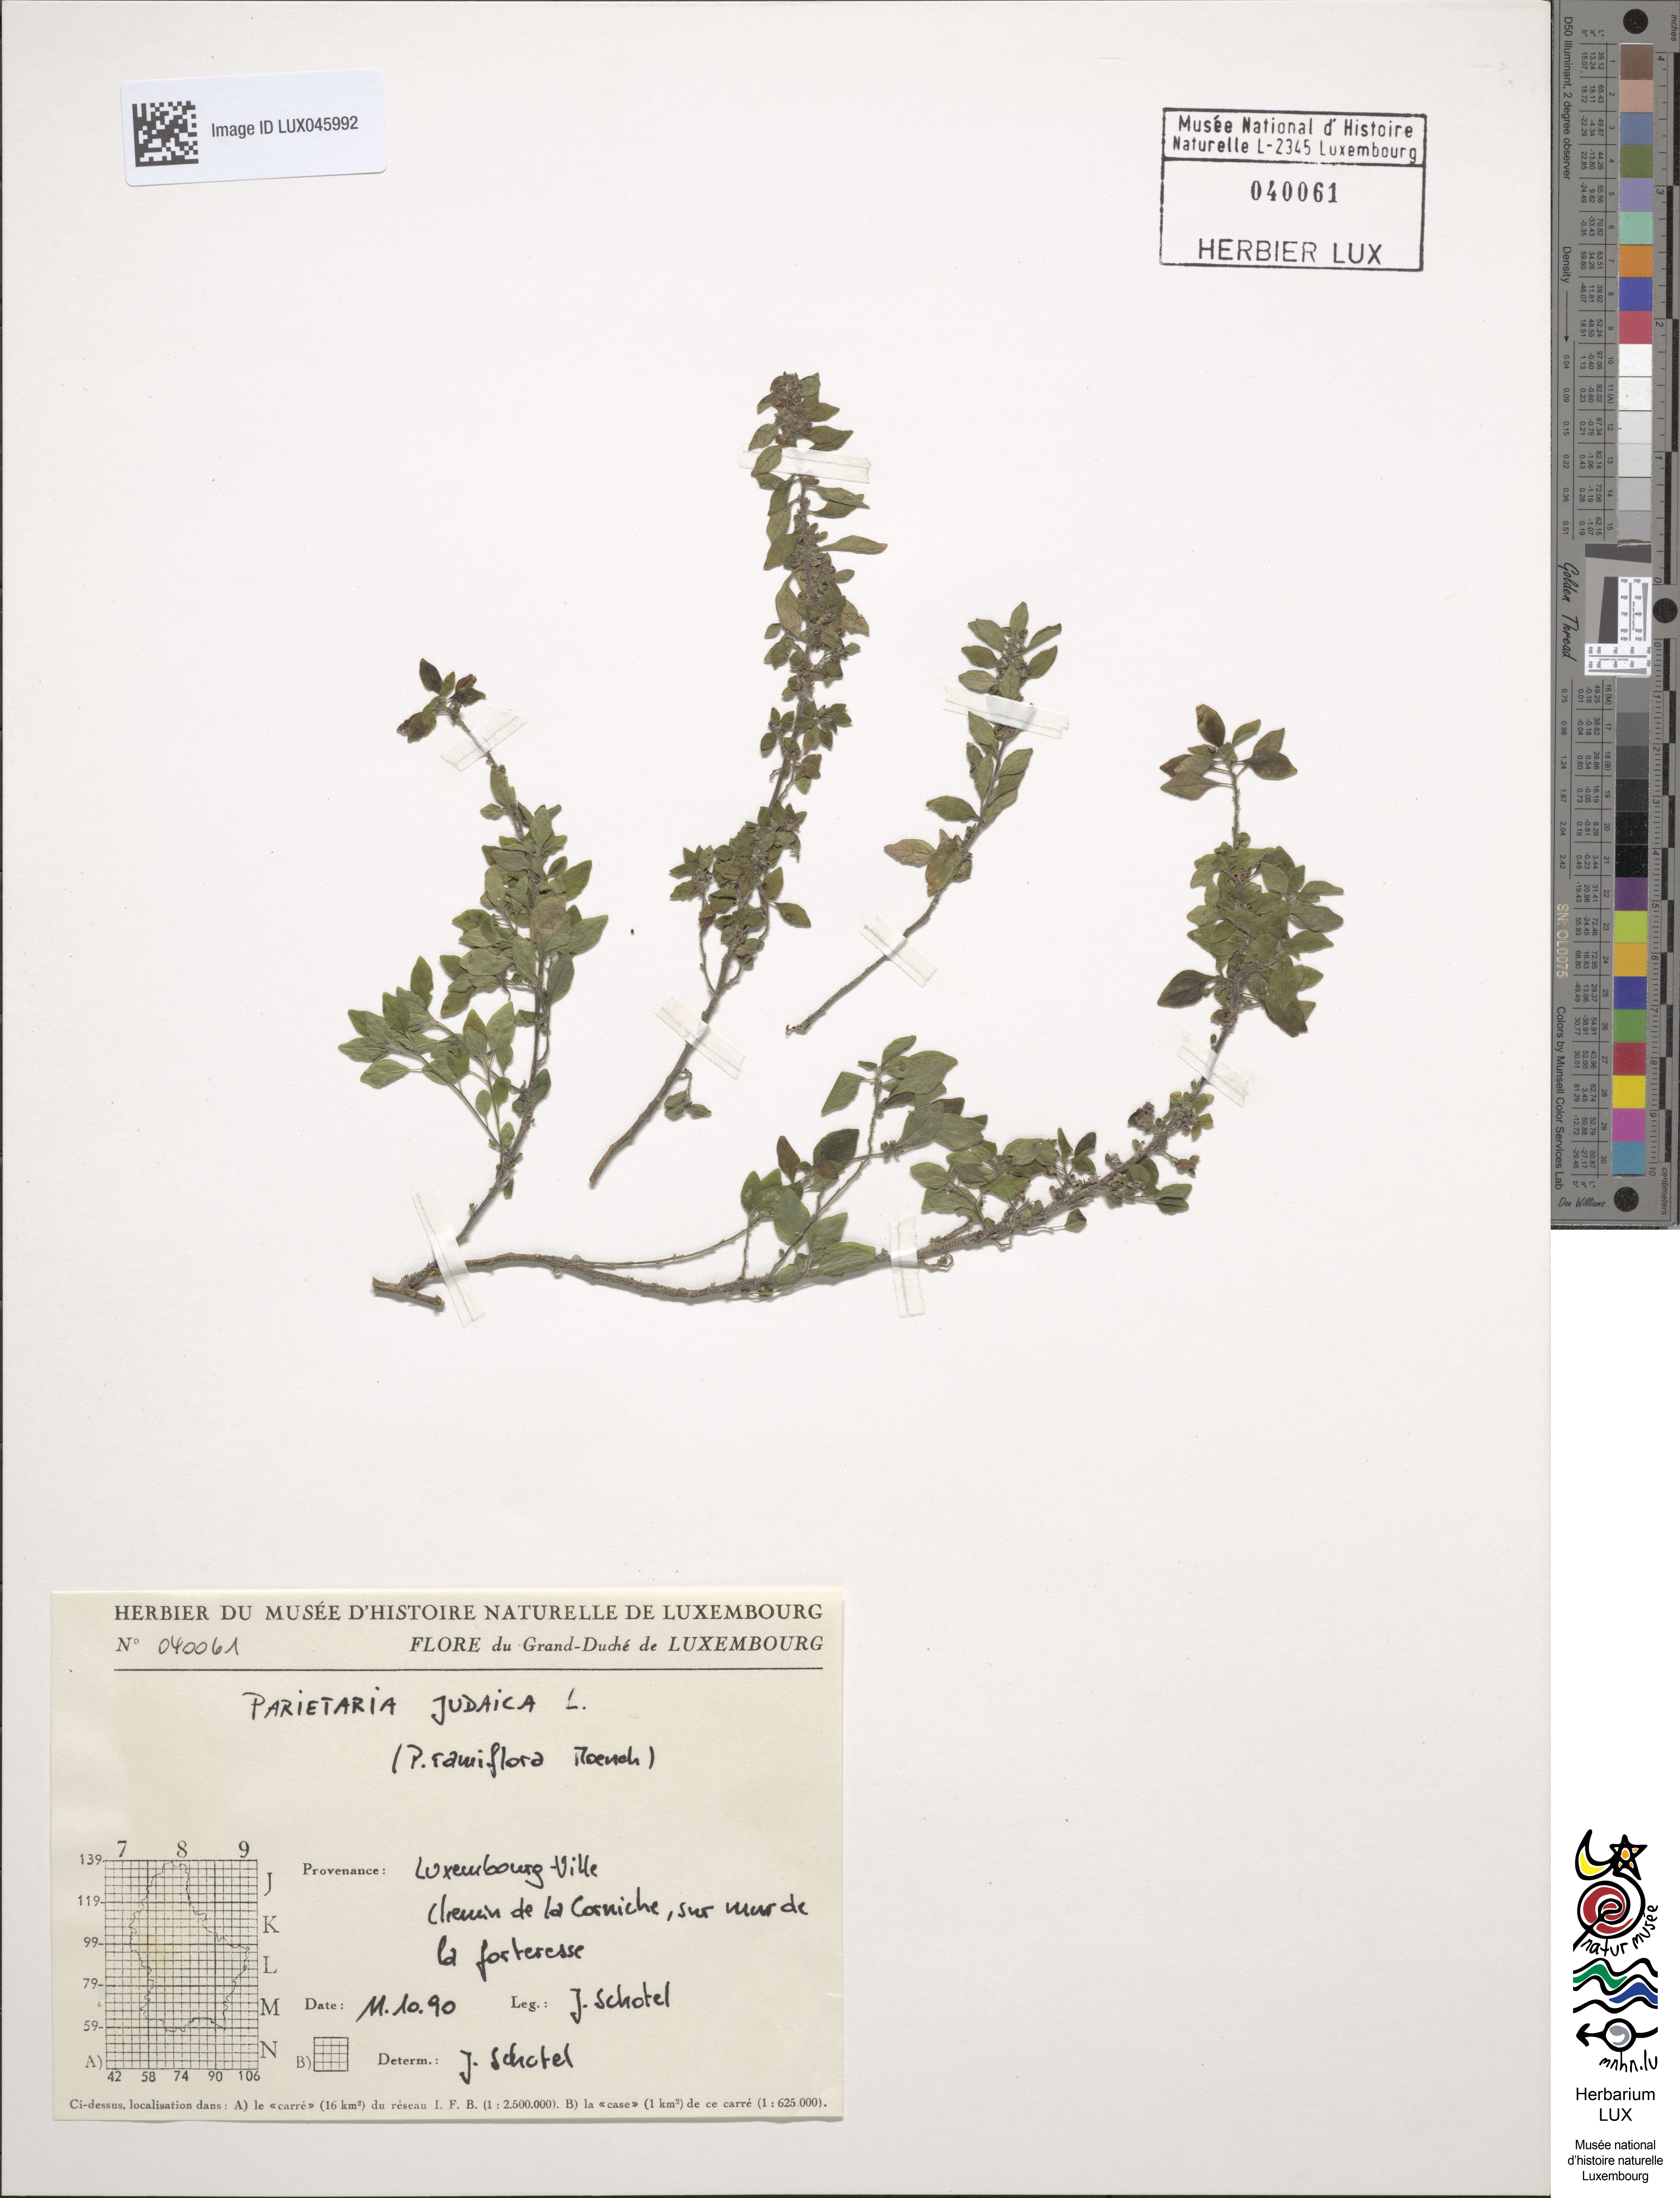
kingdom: Plantae
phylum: Tracheophyta
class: Magnoliopsida
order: Rosales
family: Urticaceae
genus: Parietaria
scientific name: Parietaria judaica
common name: Pellitory-of-the-wall
